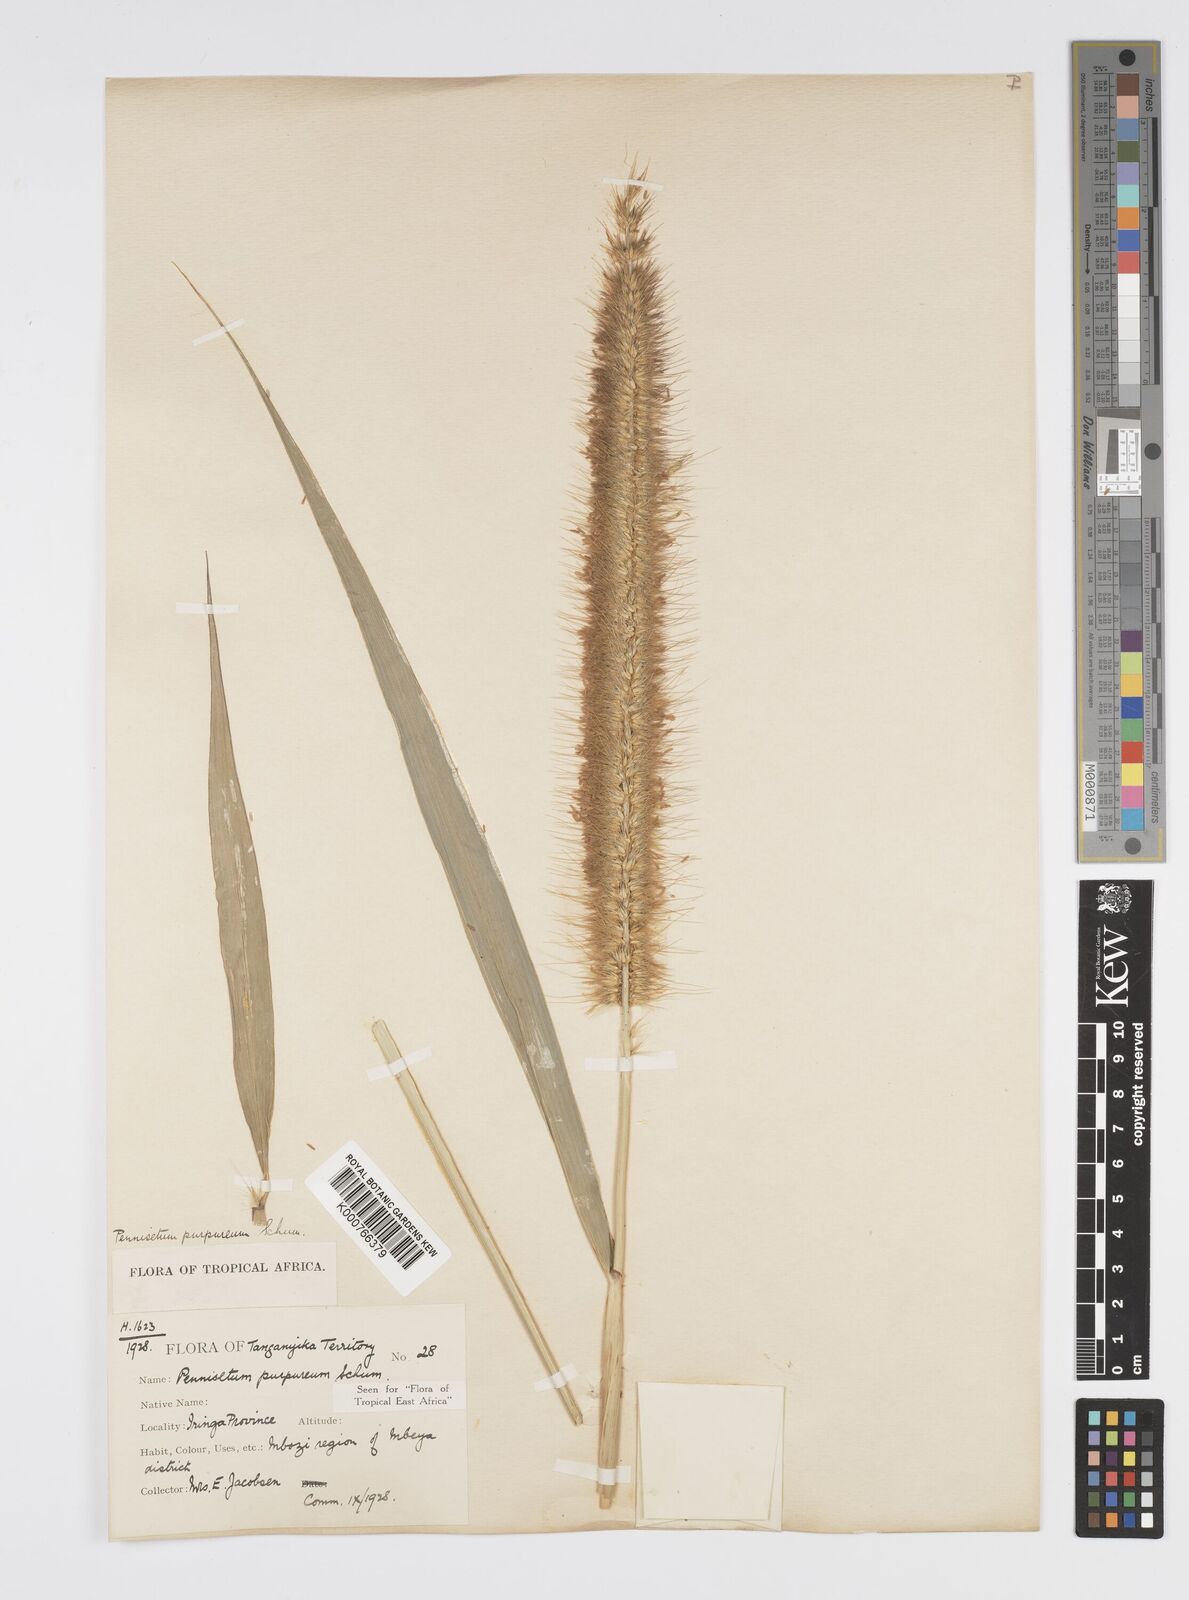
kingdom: Plantae
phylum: Tracheophyta
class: Liliopsida
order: Poales
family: Poaceae
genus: Cenchrus
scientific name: Cenchrus purpureus
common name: Elephant grass
